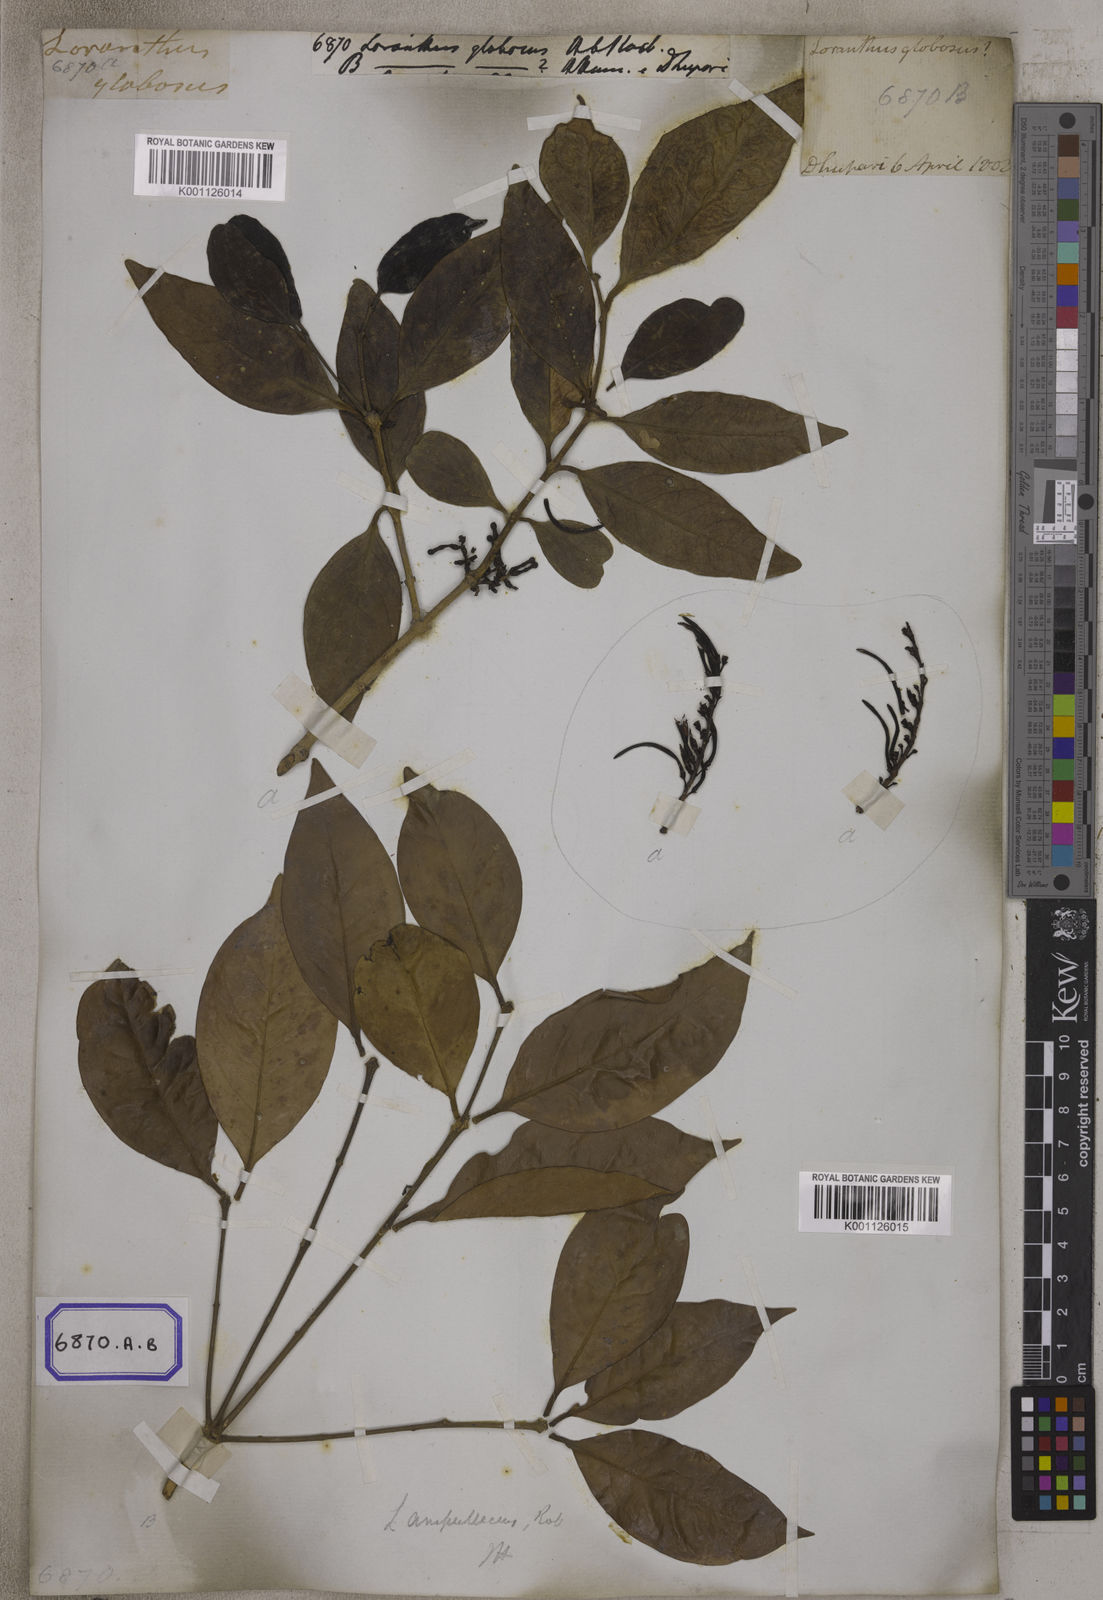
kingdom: Plantae
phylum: Tracheophyta
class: Magnoliopsida
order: Santalales
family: Loranthaceae
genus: Macrosolen
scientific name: Macrosolen globosus
